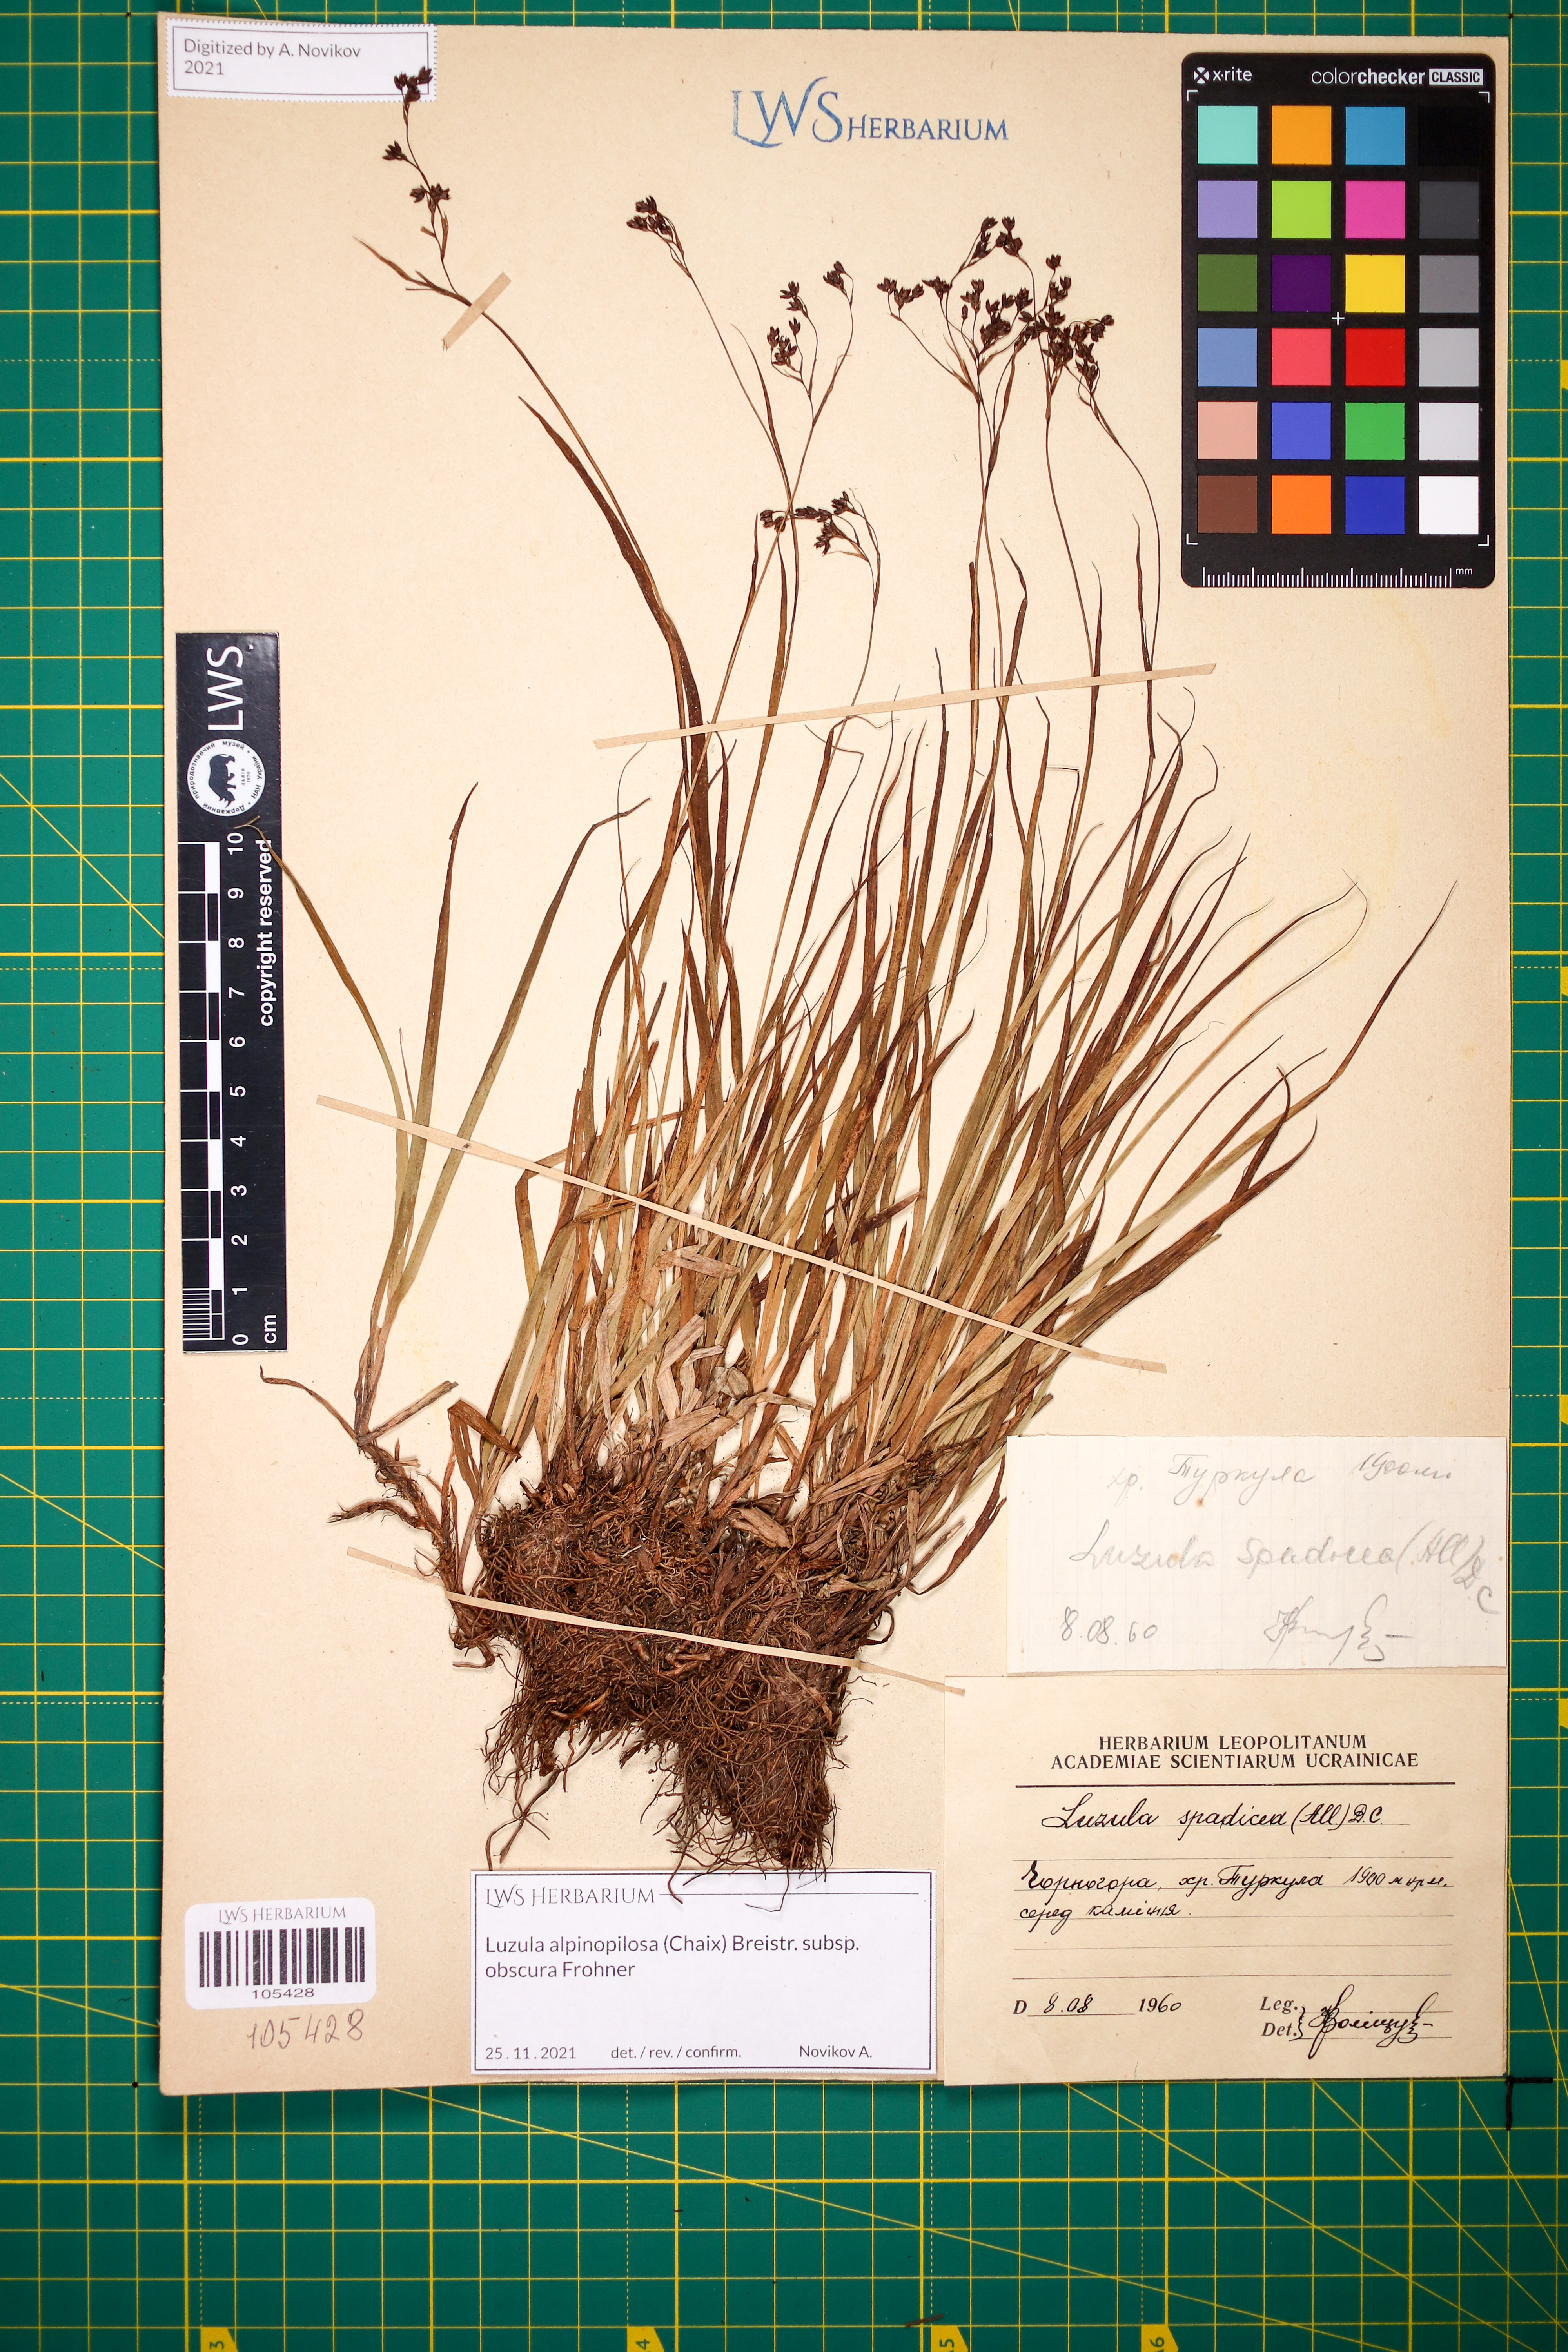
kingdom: Plantae
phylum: Tracheophyta
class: Liliopsida
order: Poales
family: Juncaceae
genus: Luzula
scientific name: Luzula alpinopilosa
